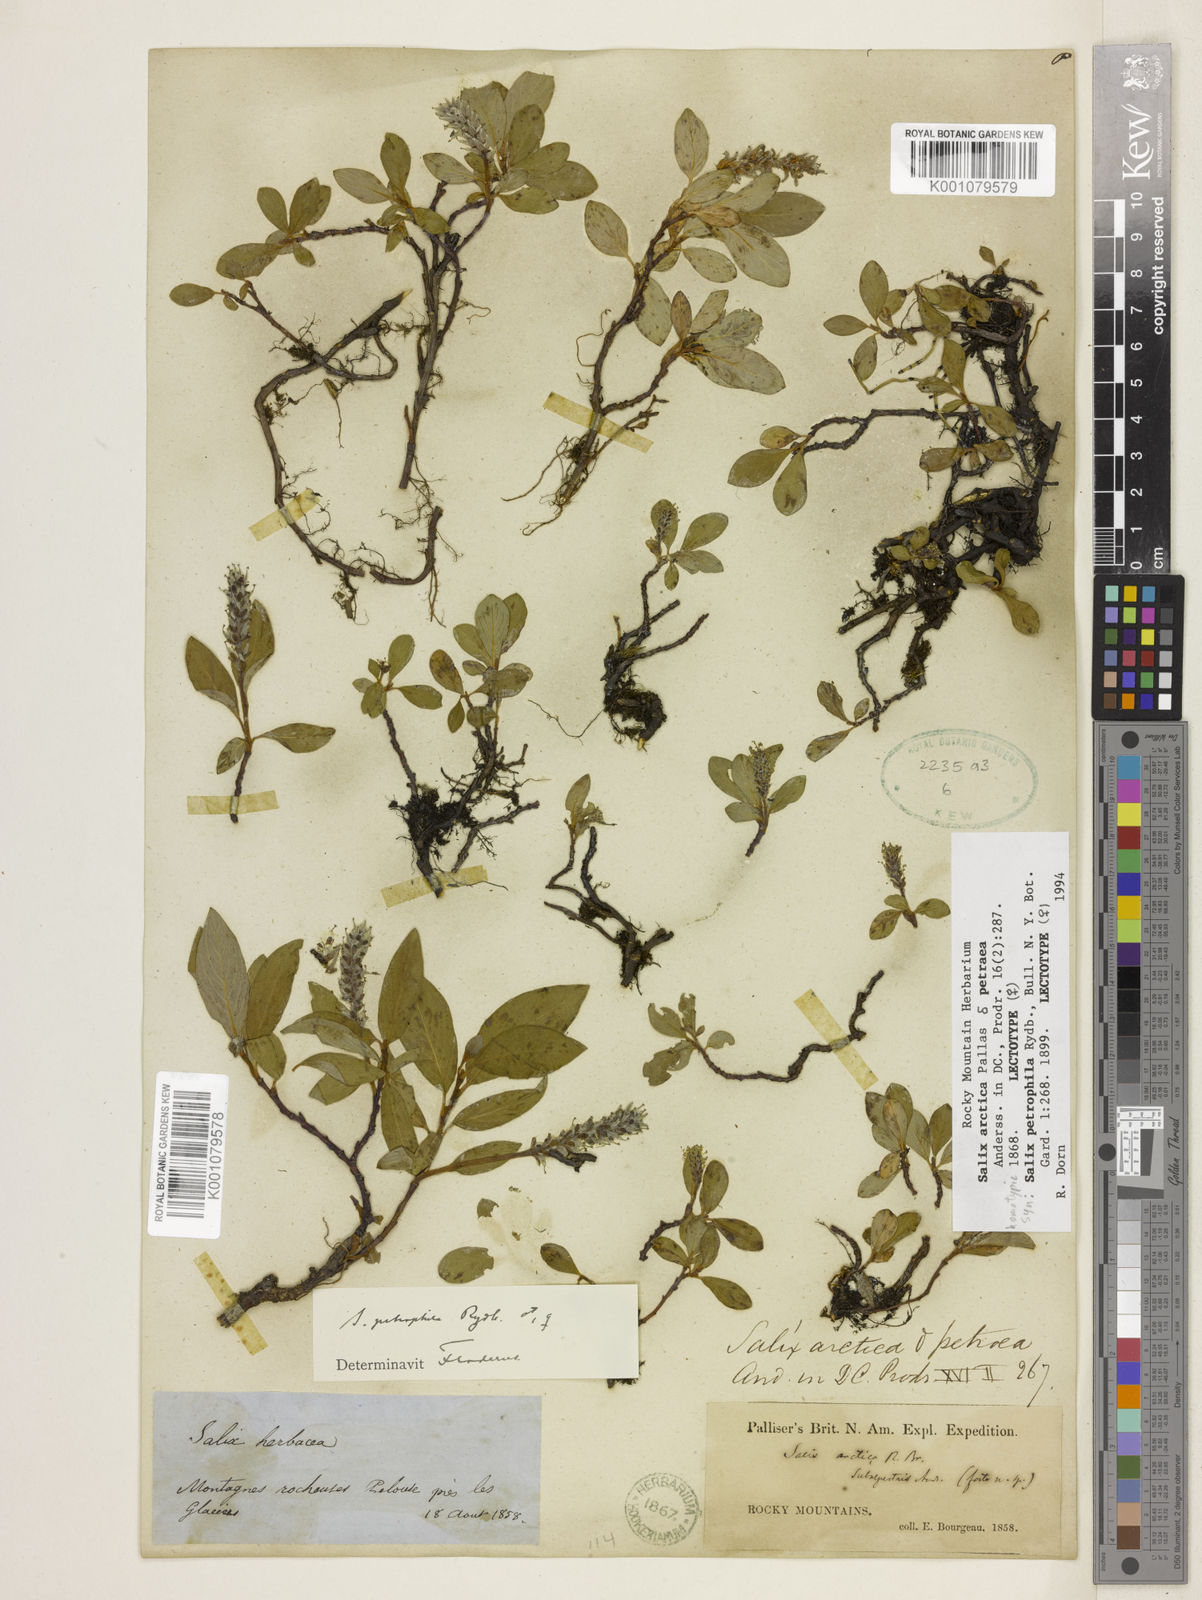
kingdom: Plantae
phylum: Tracheophyta
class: Magnoliopsida
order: Malpighiales
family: Salicaceae
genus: Salix
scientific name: Salix petrophila
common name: Rocky mountain willow
